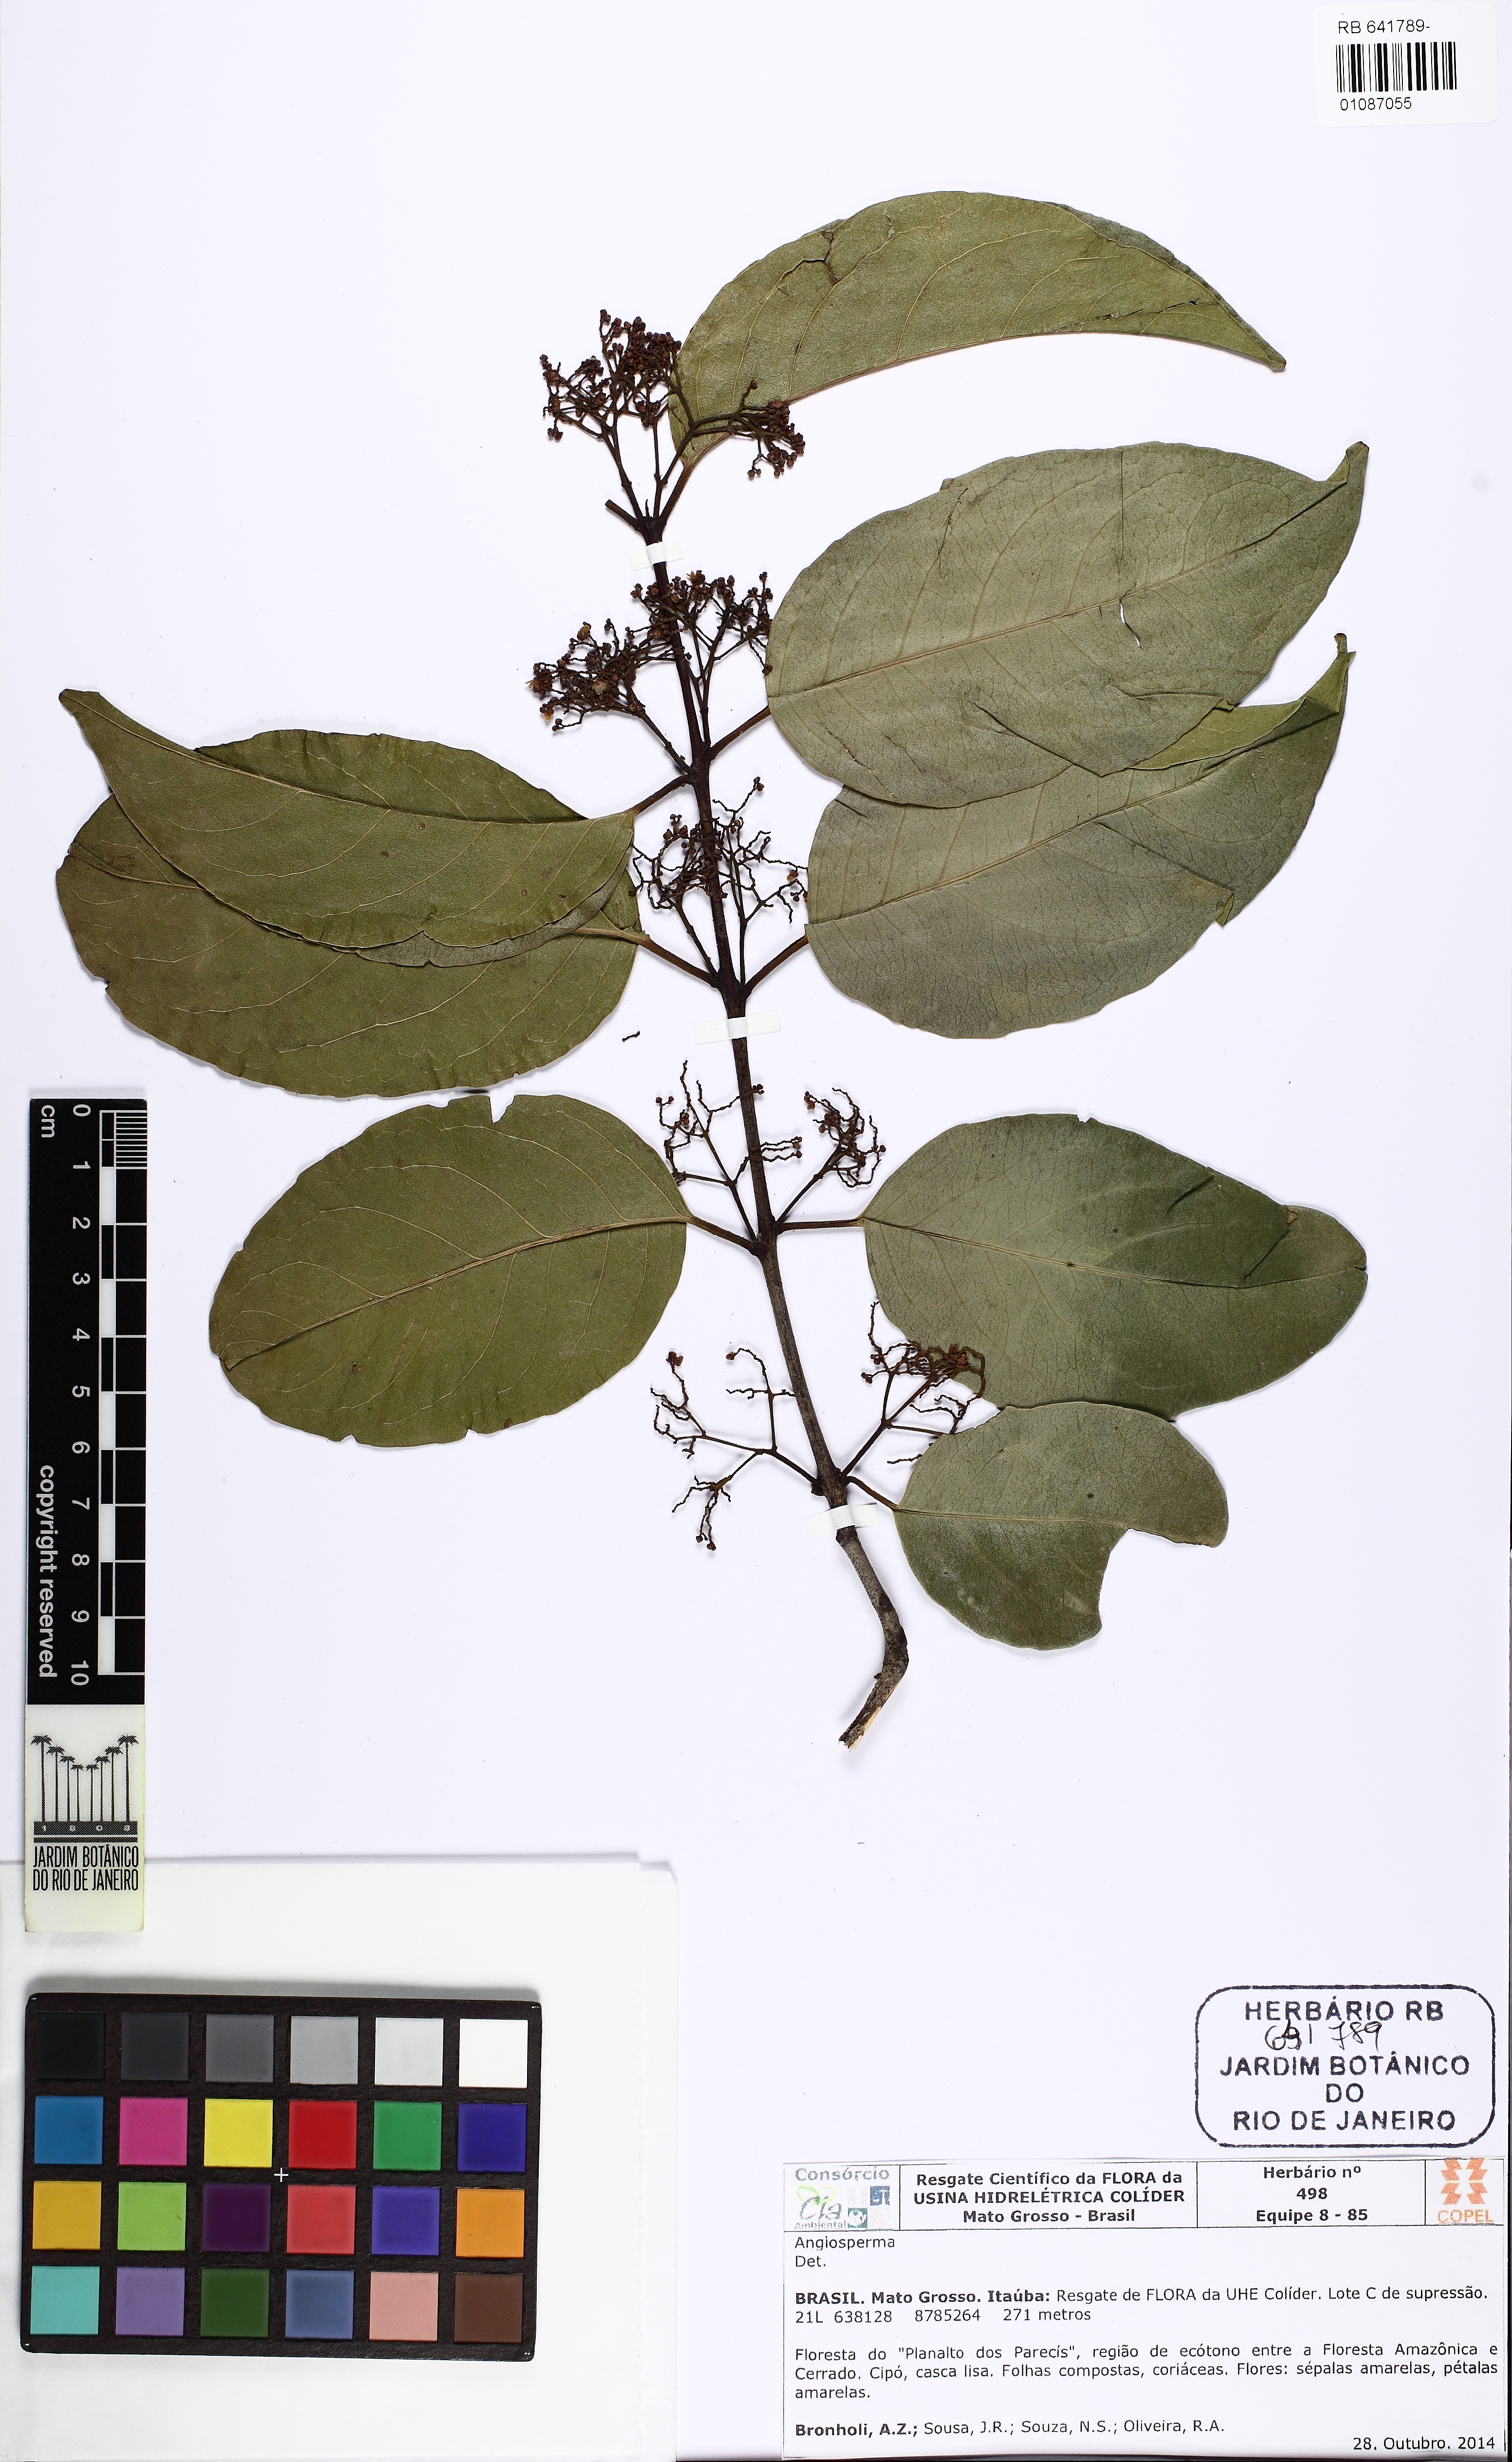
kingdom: Plantae
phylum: Tracheophyta
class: Magnoliopsida
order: Celastrales
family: Celastraceae
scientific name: Celastraceae
